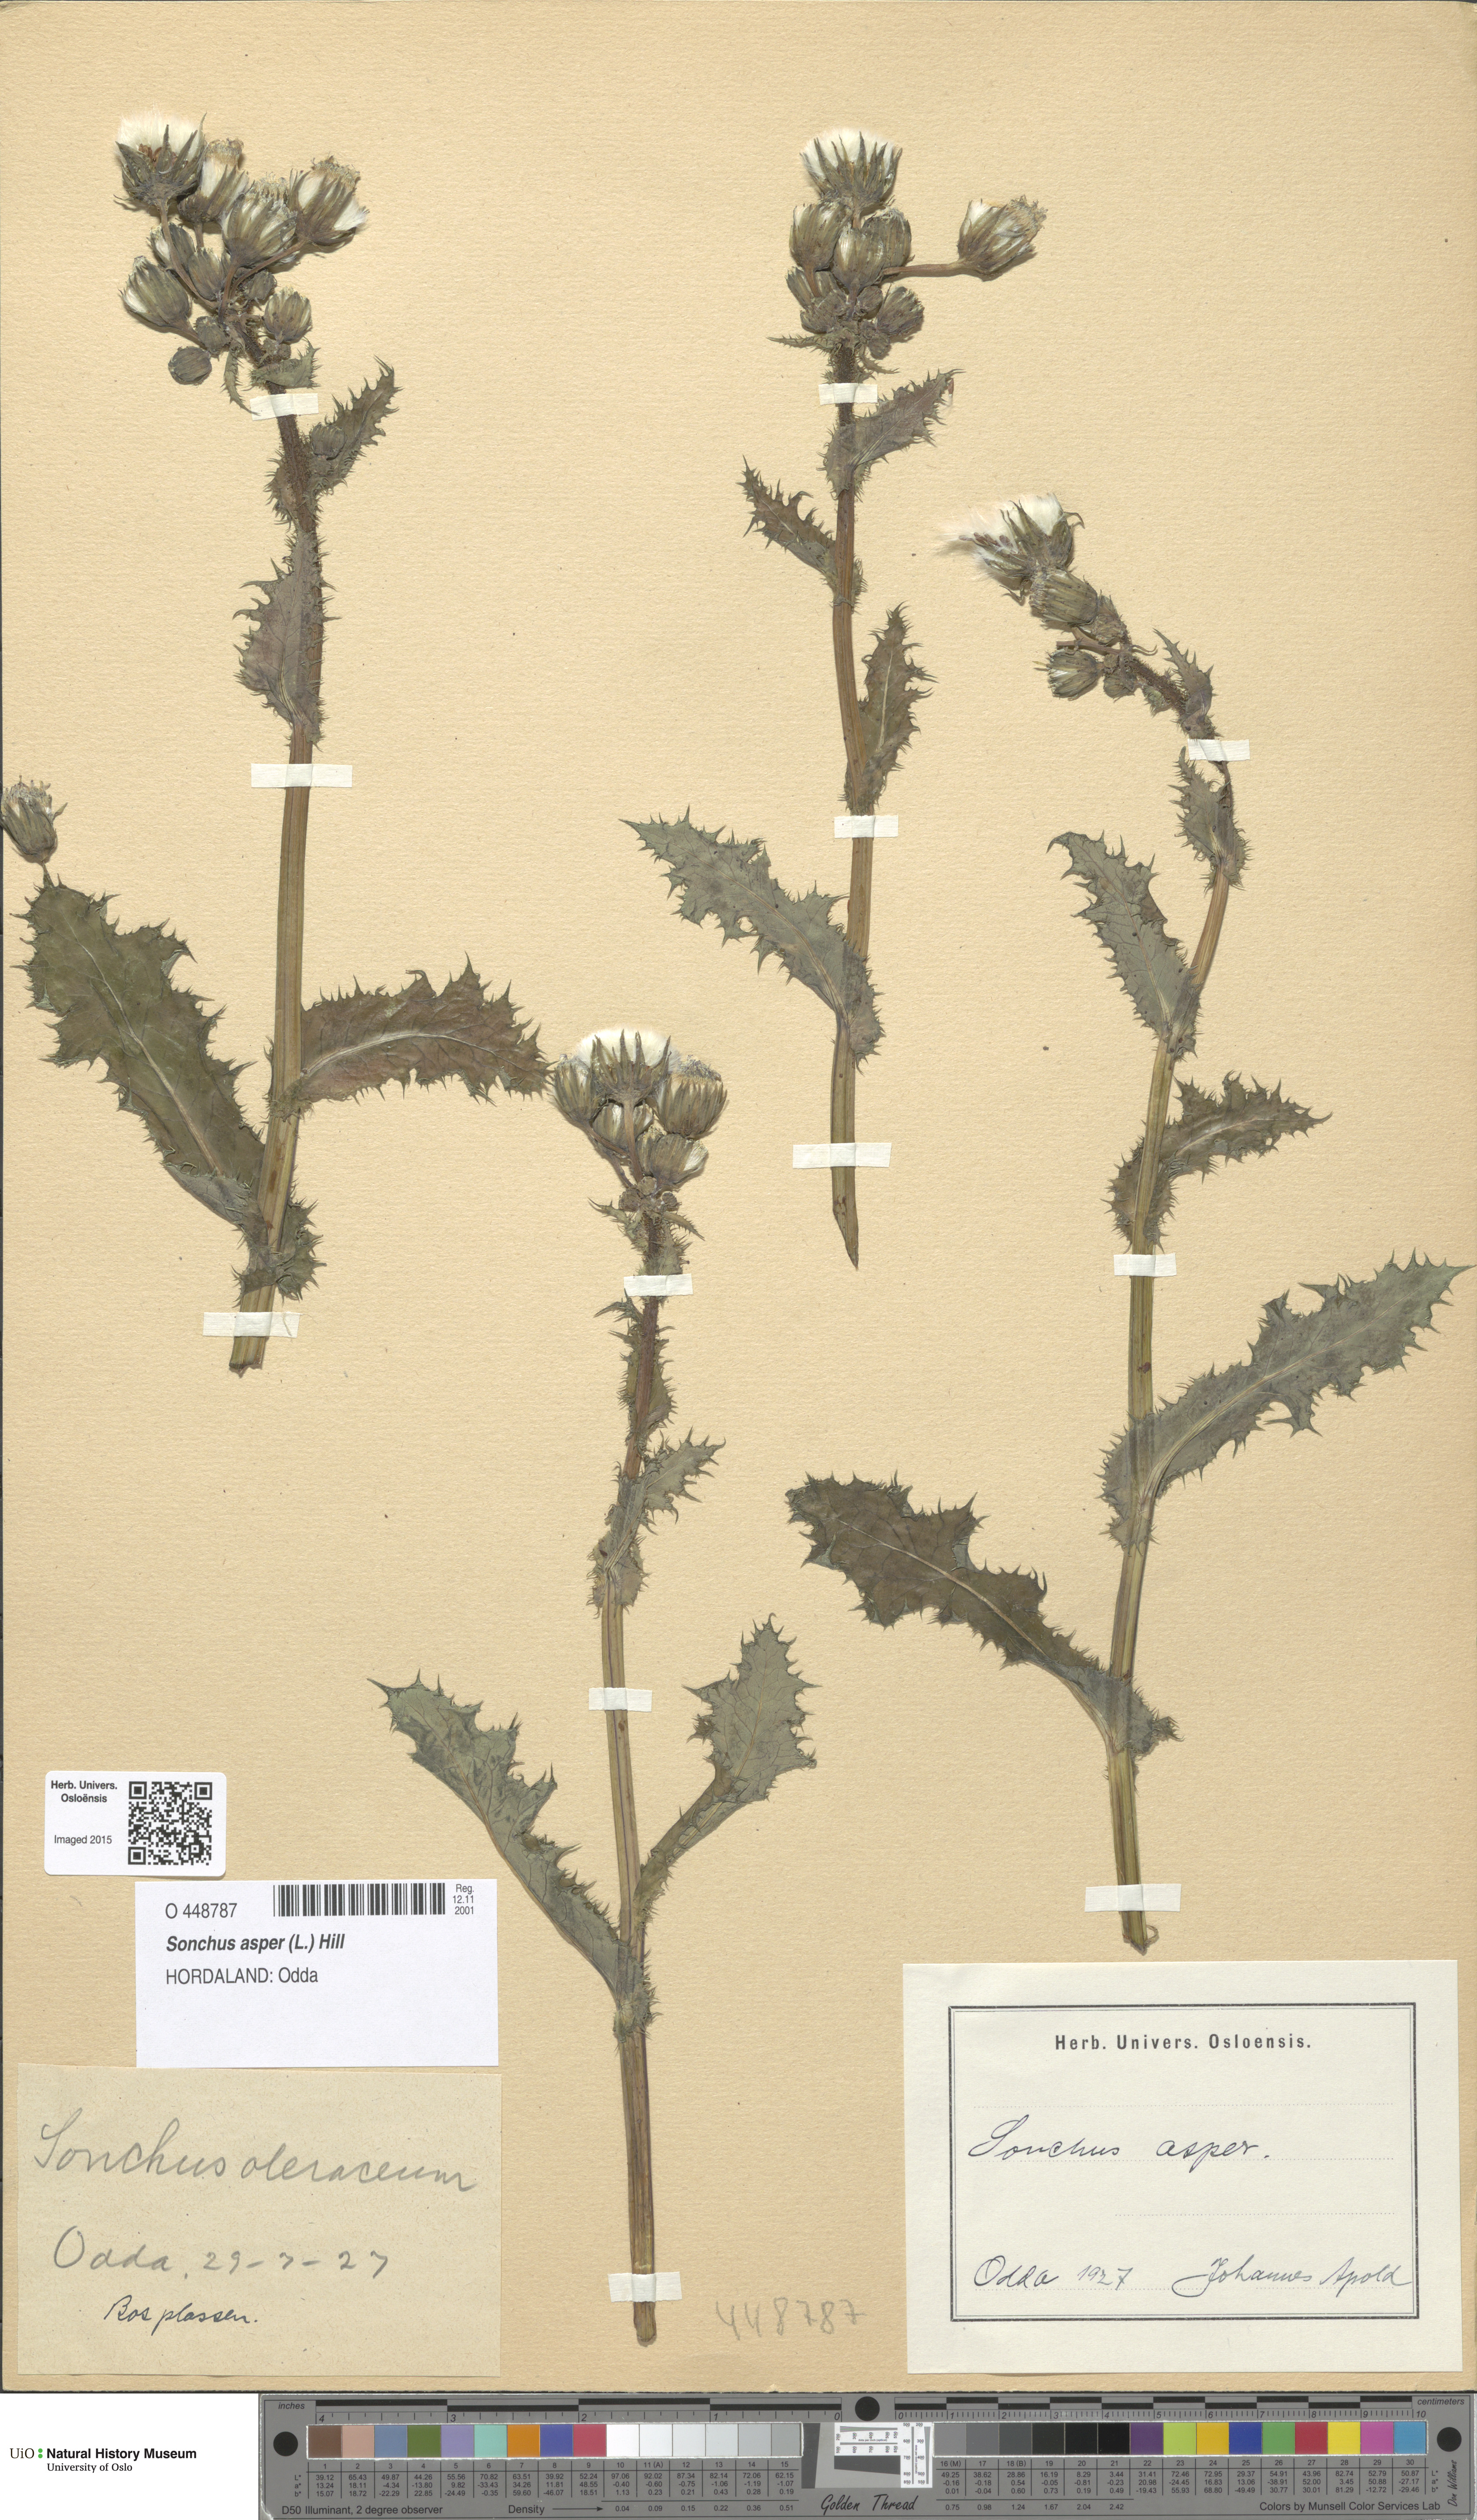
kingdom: Plantae
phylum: Tracheophyta
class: Magnoliopsida
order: Asterales
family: Asteraceae
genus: Sonchus
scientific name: Sonchus asper
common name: Prickly sow-thistle
